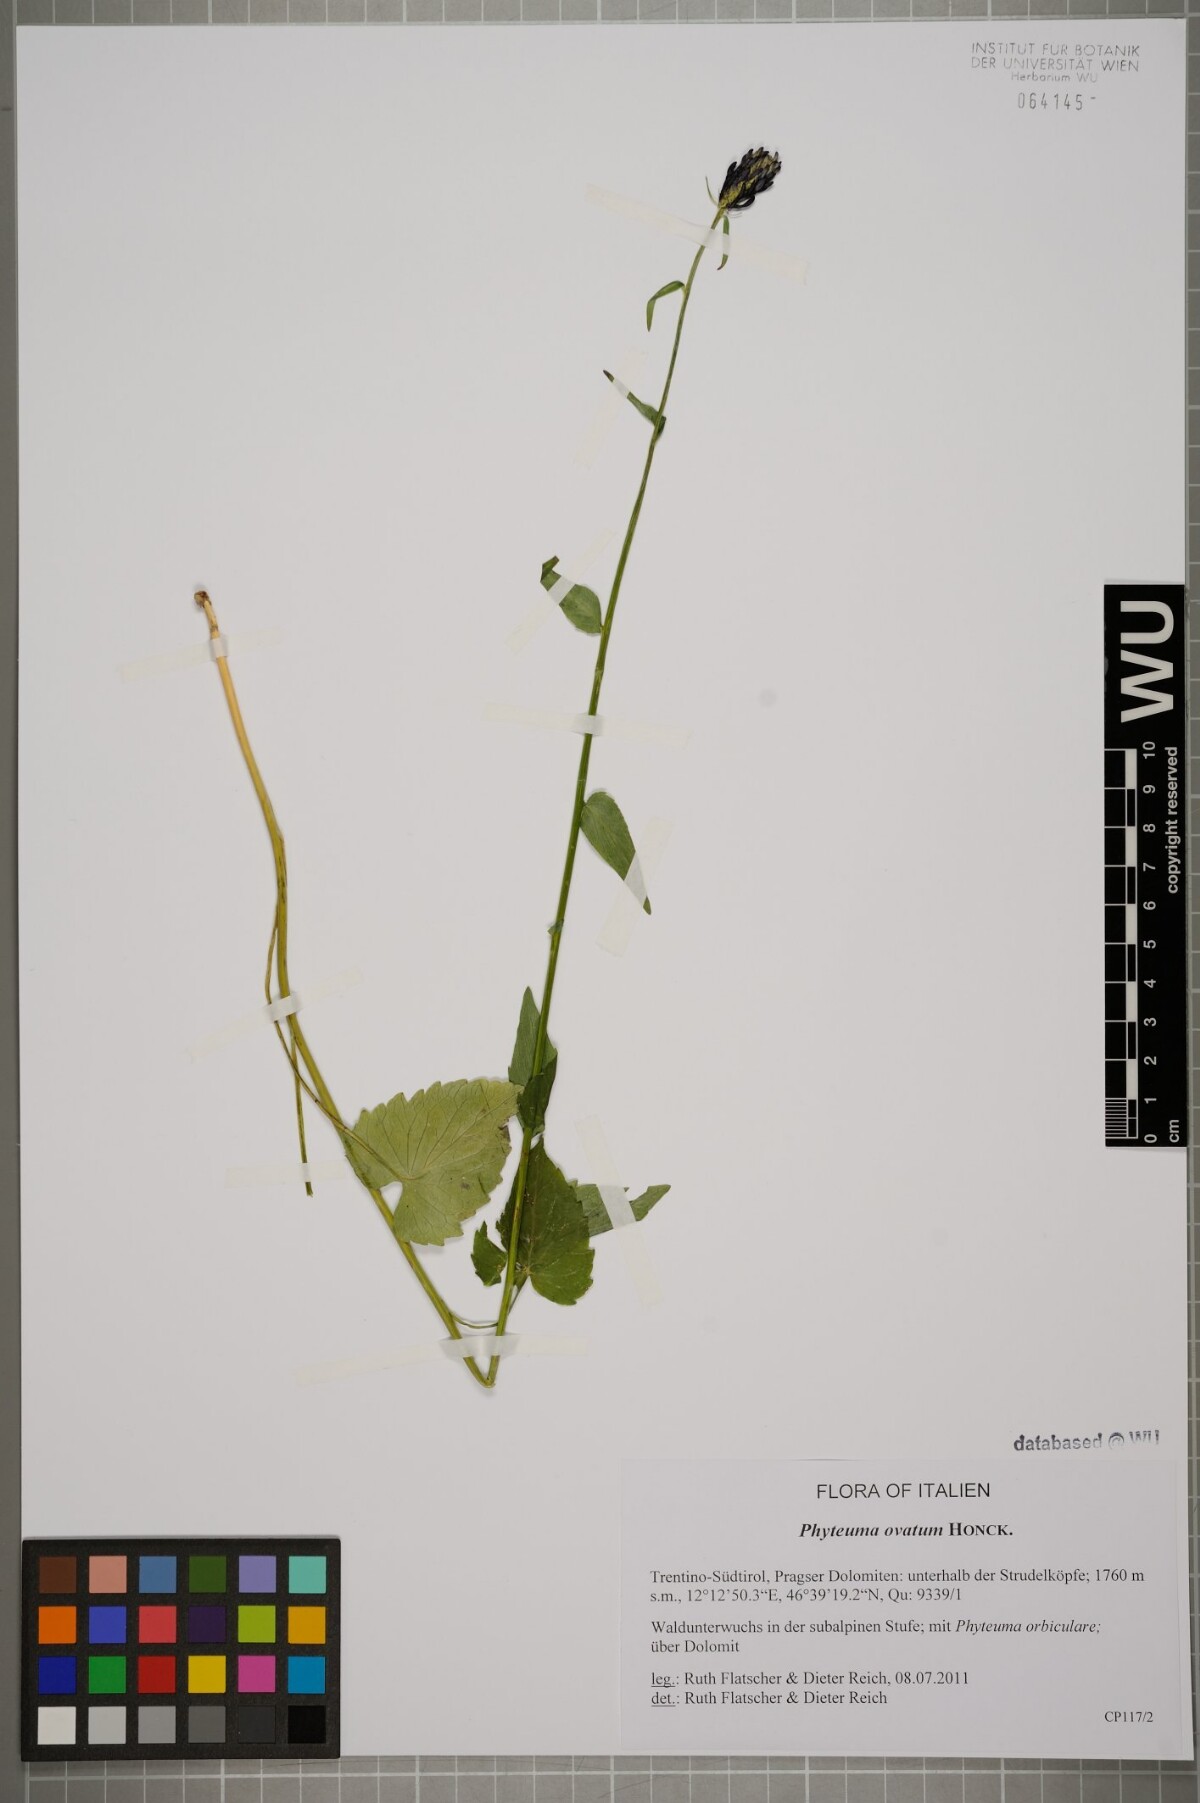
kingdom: Plantae
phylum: Tracheophyta
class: Magnoliopsida
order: Asterales
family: Campanulaceae
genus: Phyteuma
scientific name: Phyteuma ovatum
